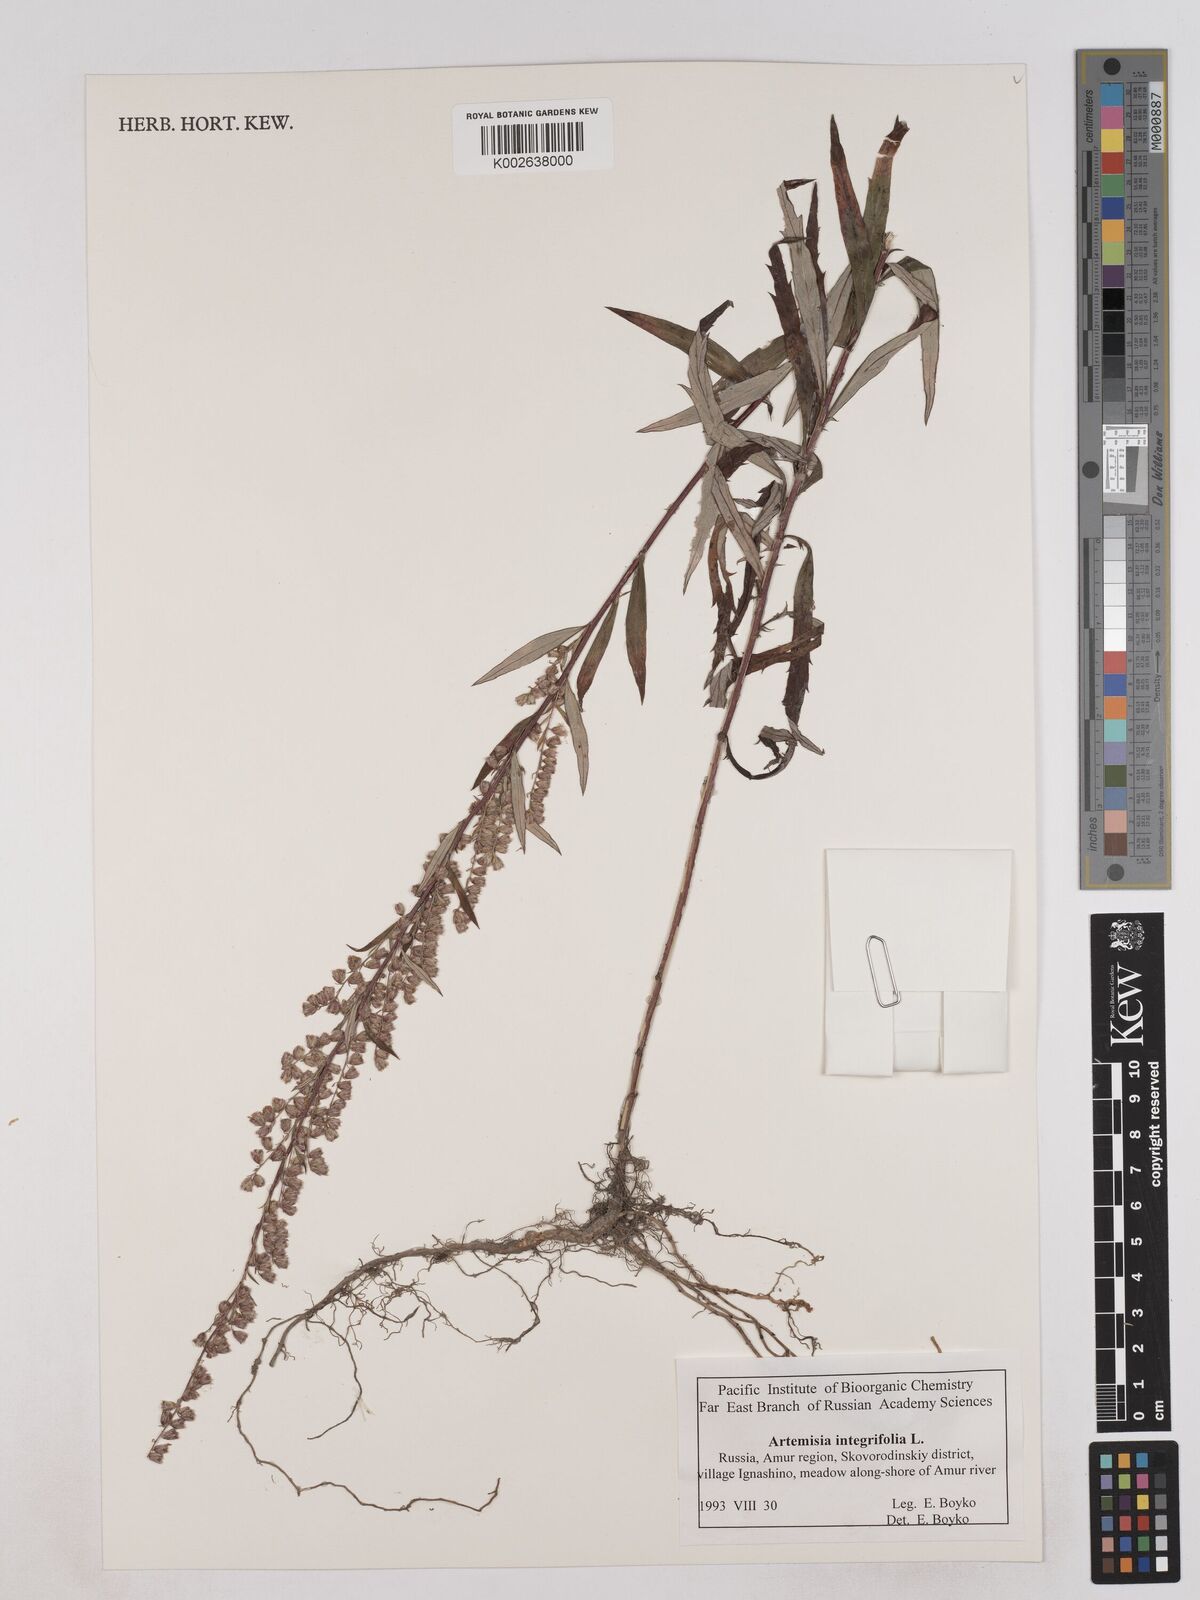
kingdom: Plantae
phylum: Tracheophyta
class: Magnoliopsida
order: Asterales
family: Asteraceae
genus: Artemisia
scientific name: Artemisia integrifolia
